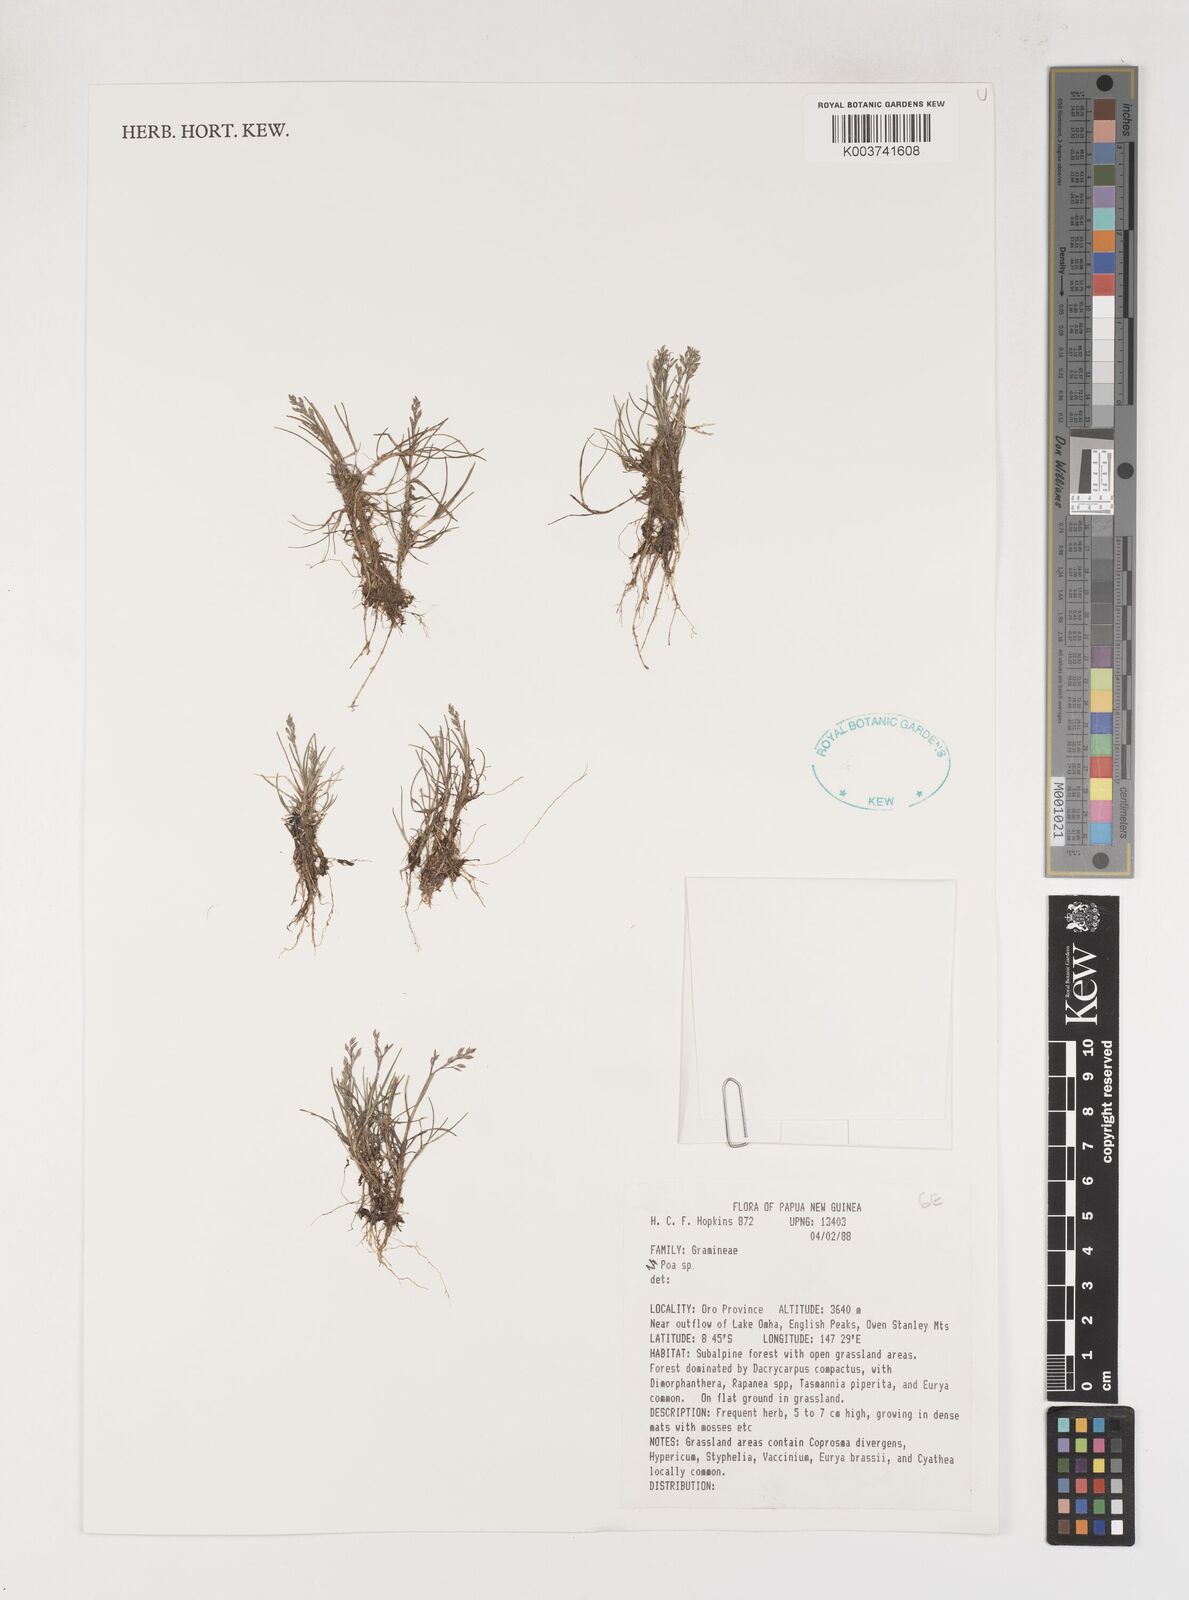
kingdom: Plantae
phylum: Tracheophyta
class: Liliopsida
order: Poales
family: Poaceae
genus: Poa
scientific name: Poa
